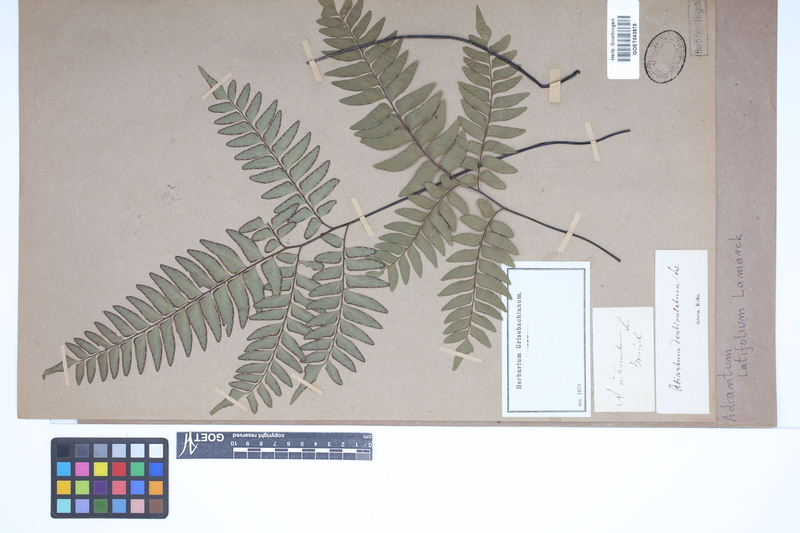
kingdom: Plantae
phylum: Tracheophyta
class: Polypodiopsida
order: Polypodiales
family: Pteridaceae
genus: Adiantum
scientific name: Adiantum latifolium
